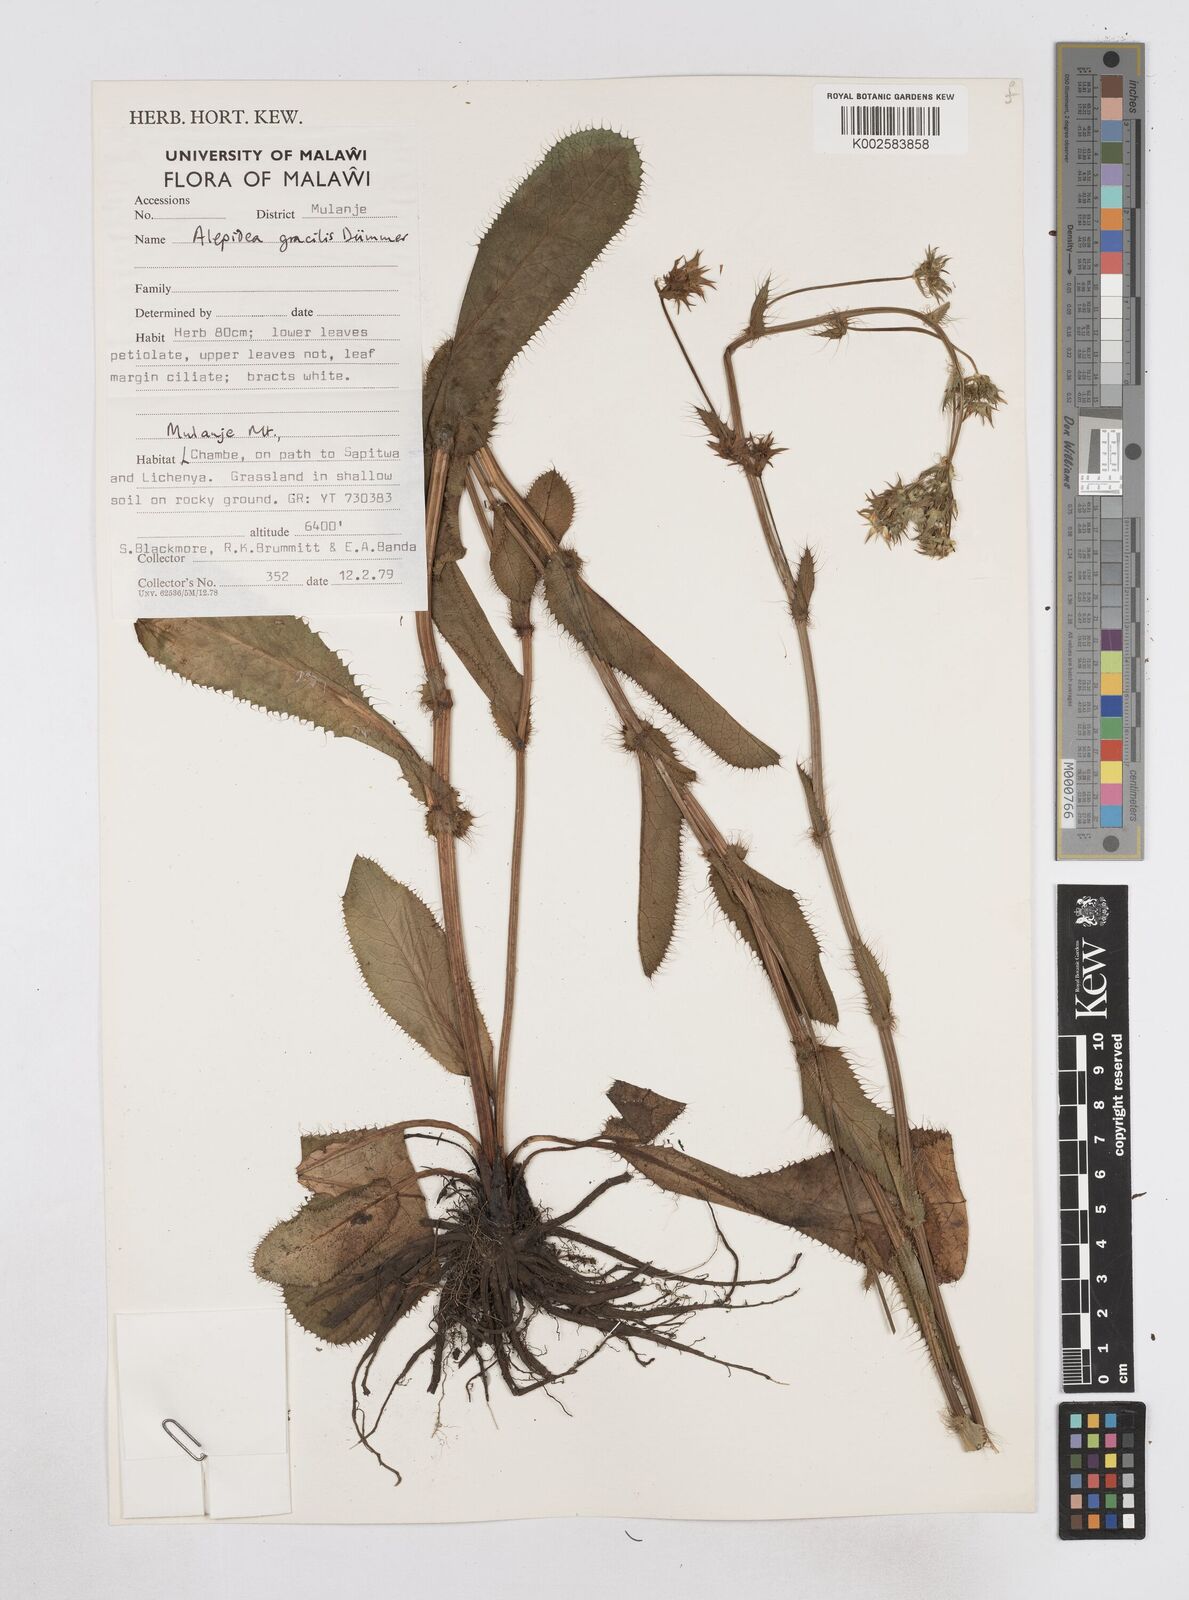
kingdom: Plantae
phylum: Tracheophyta
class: Magnoliopsida
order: Apiales
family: Apiaceae
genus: Alepidea
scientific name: Alepidea peduncularis
